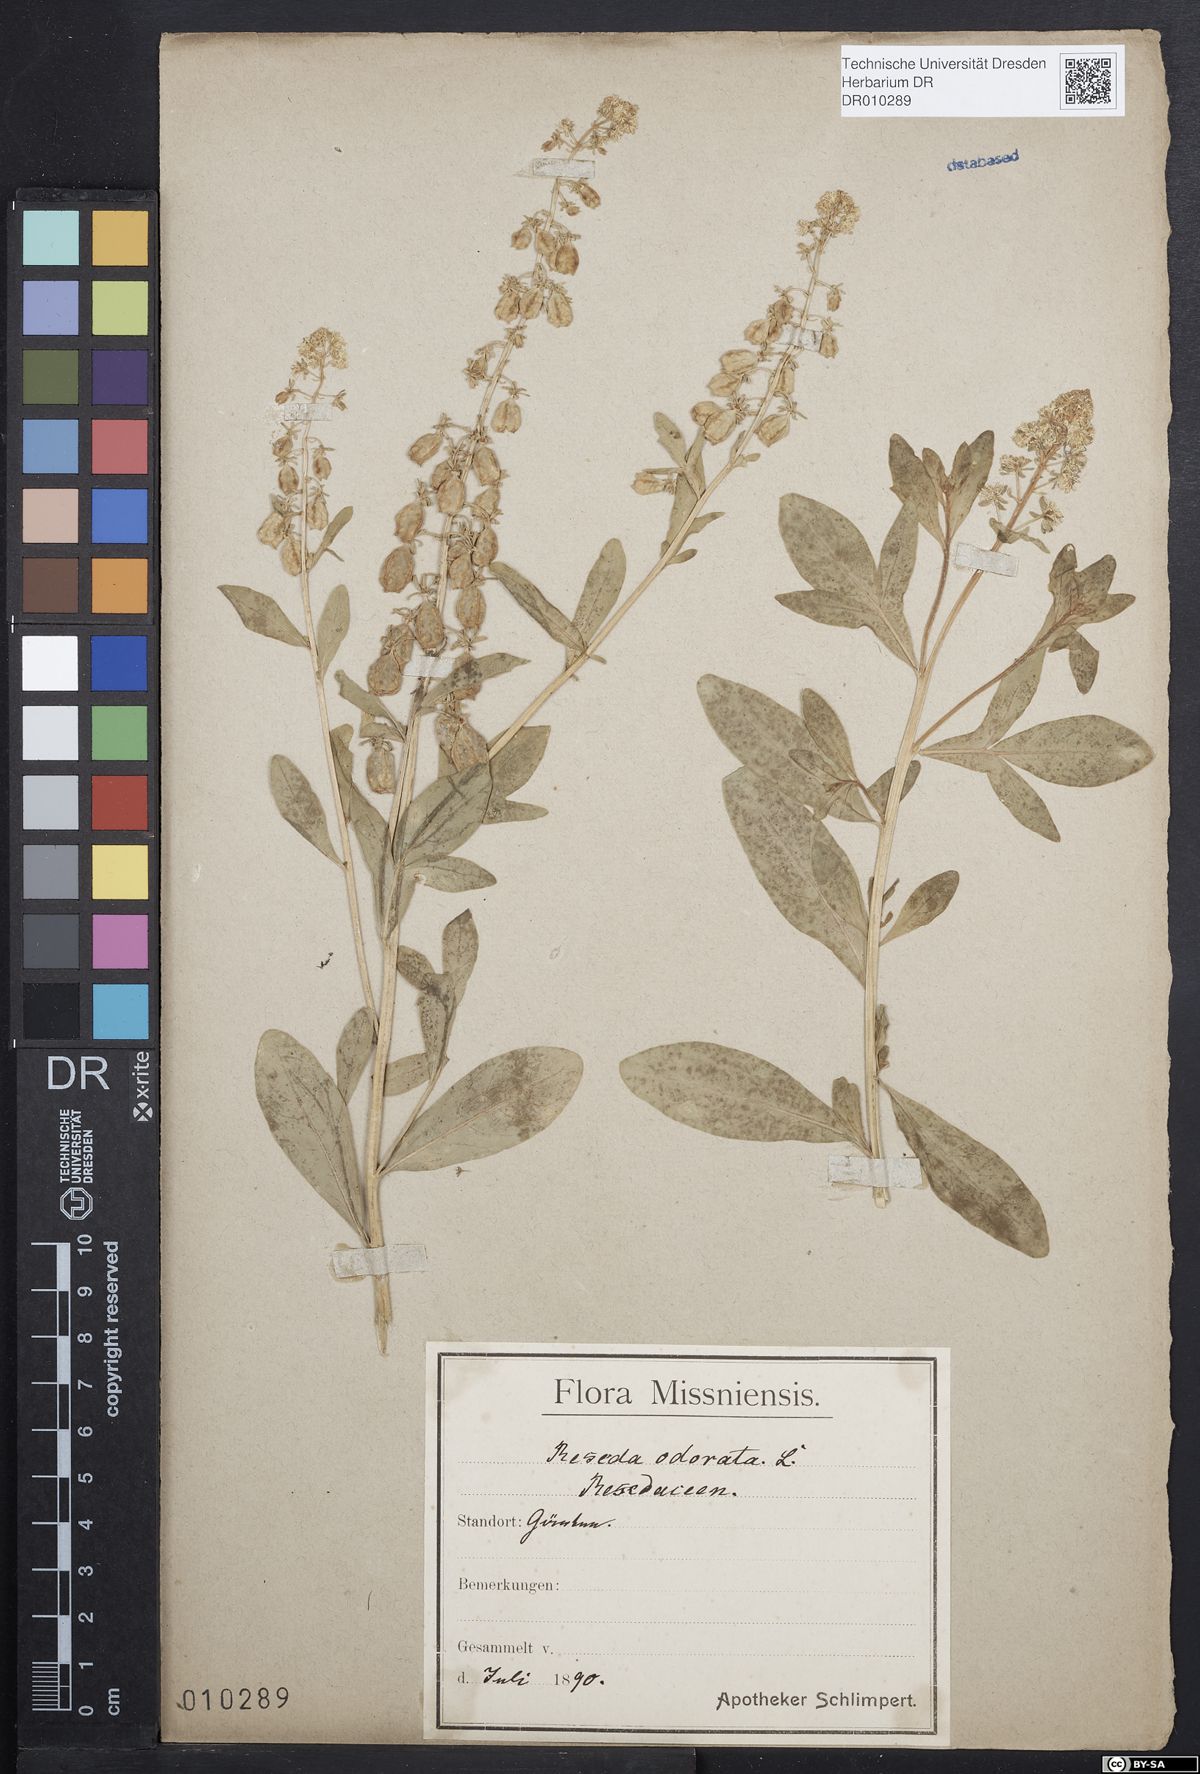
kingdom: Plantae
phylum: Tracheophyta
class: Magnoliopsida
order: Brassicales
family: Resedaceae
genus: Reseda
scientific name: Reseda odorata
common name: Garden mignonette
